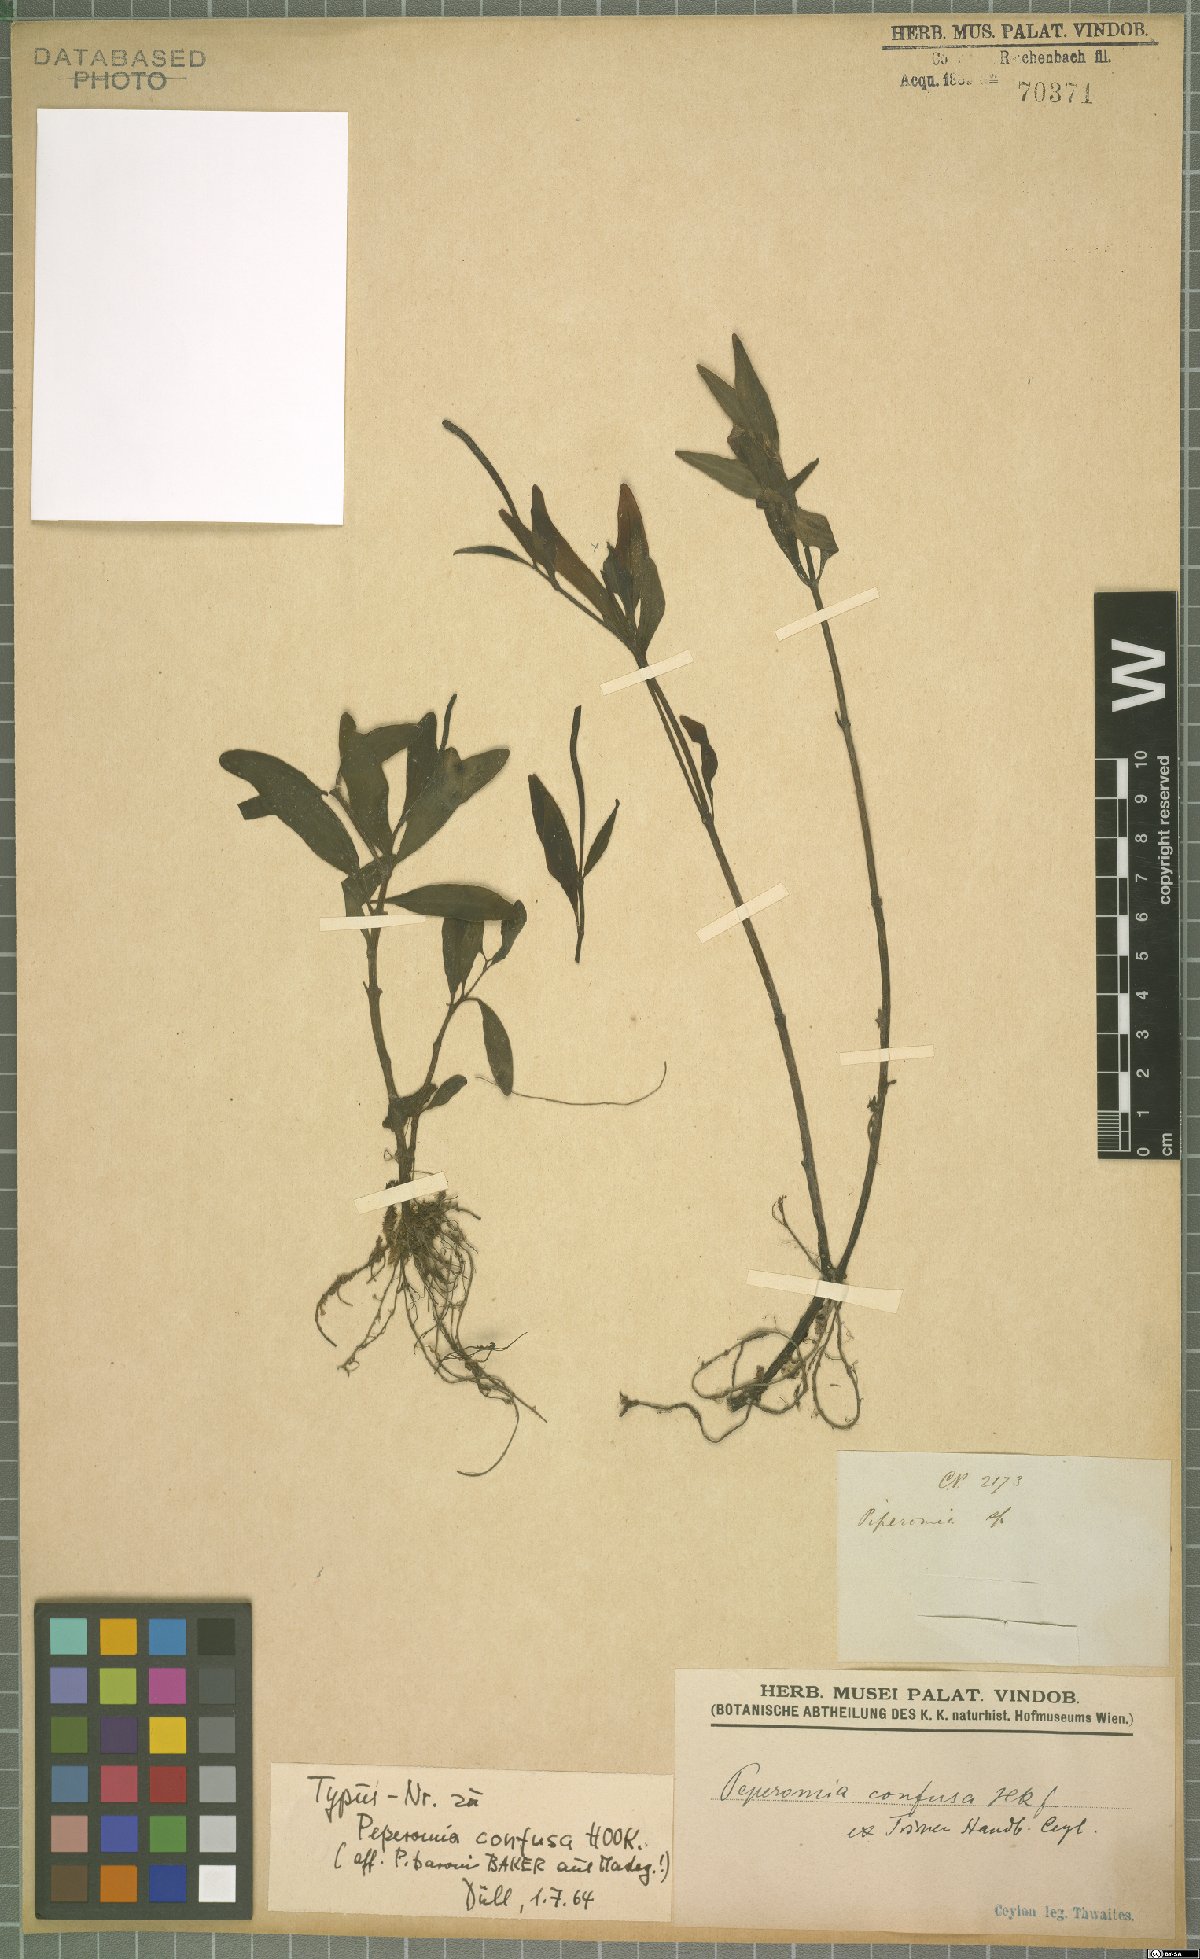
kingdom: Plantae
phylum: Tracheophyta
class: Magnoliopsida
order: Piperales
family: Piperaceae
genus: Peperomia
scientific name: Peperomia portulacoides
